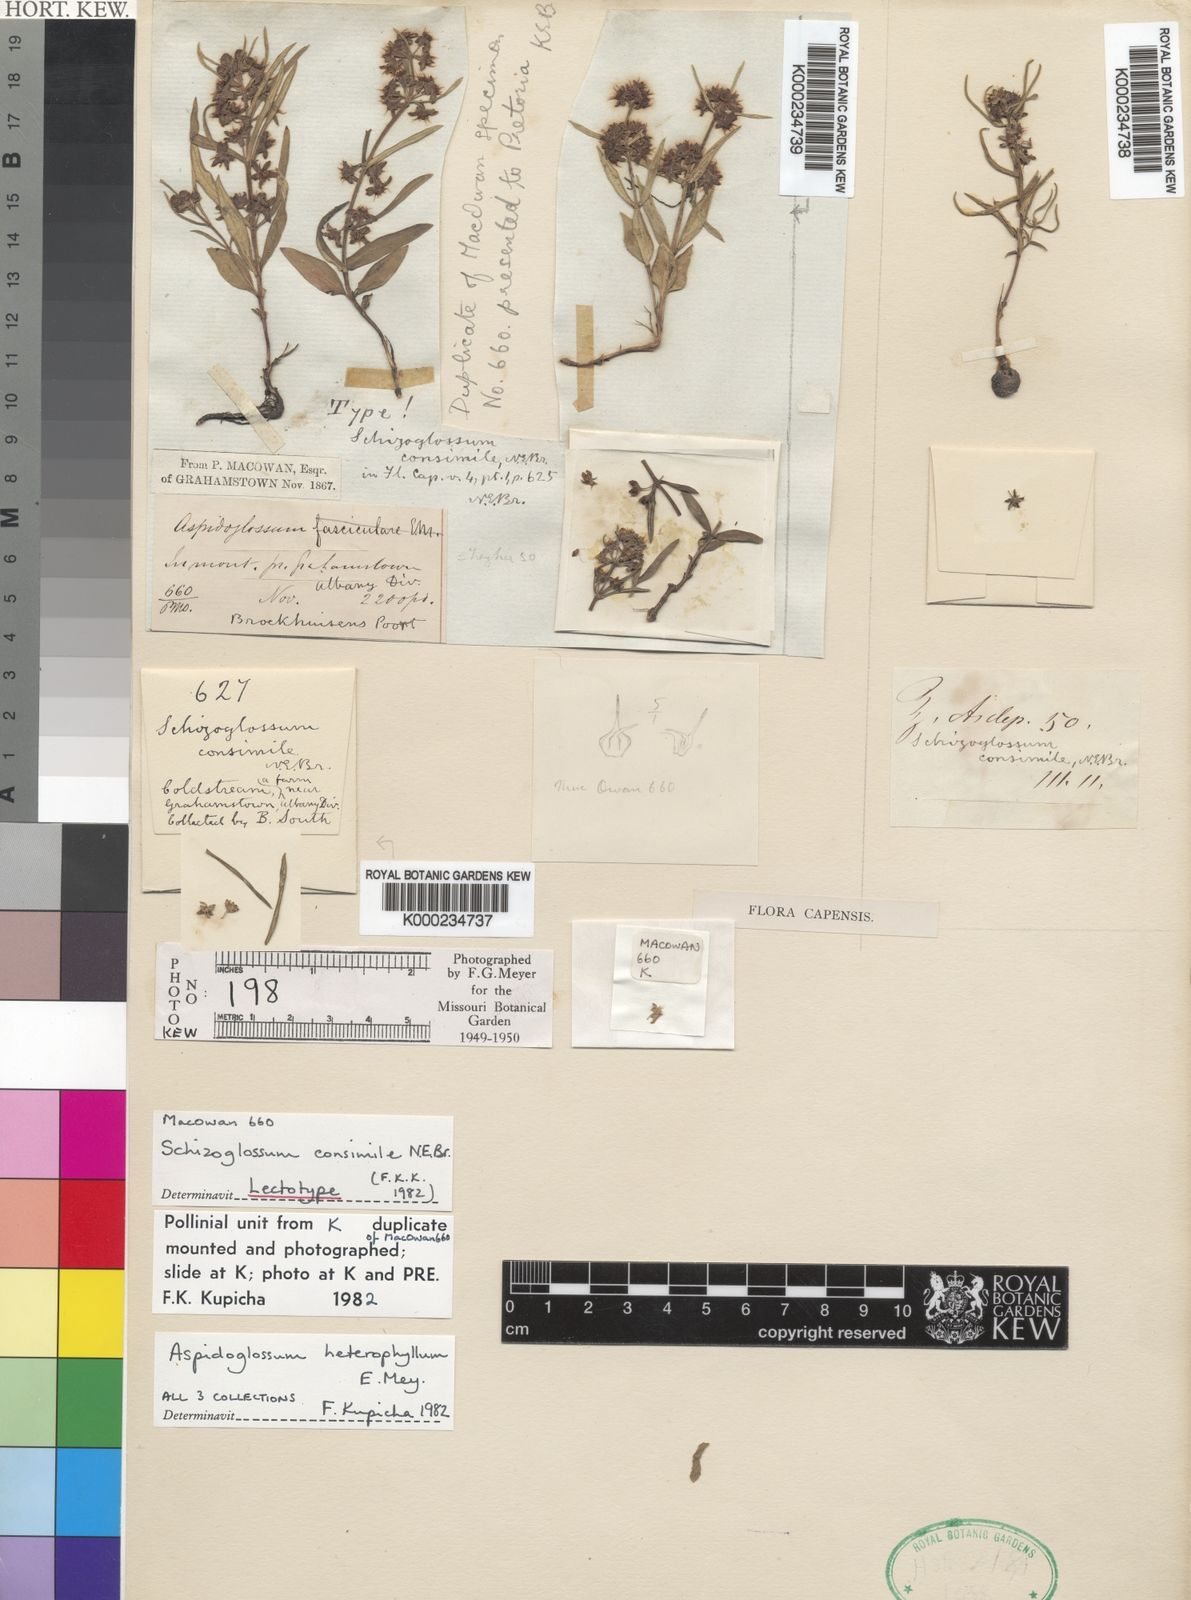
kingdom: Plantae
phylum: Tracheophyta
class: Magnoliopsida
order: Gentianales
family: Apocynaceae
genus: Aspidoglossum
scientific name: Aspidoglossum heterophyllum
